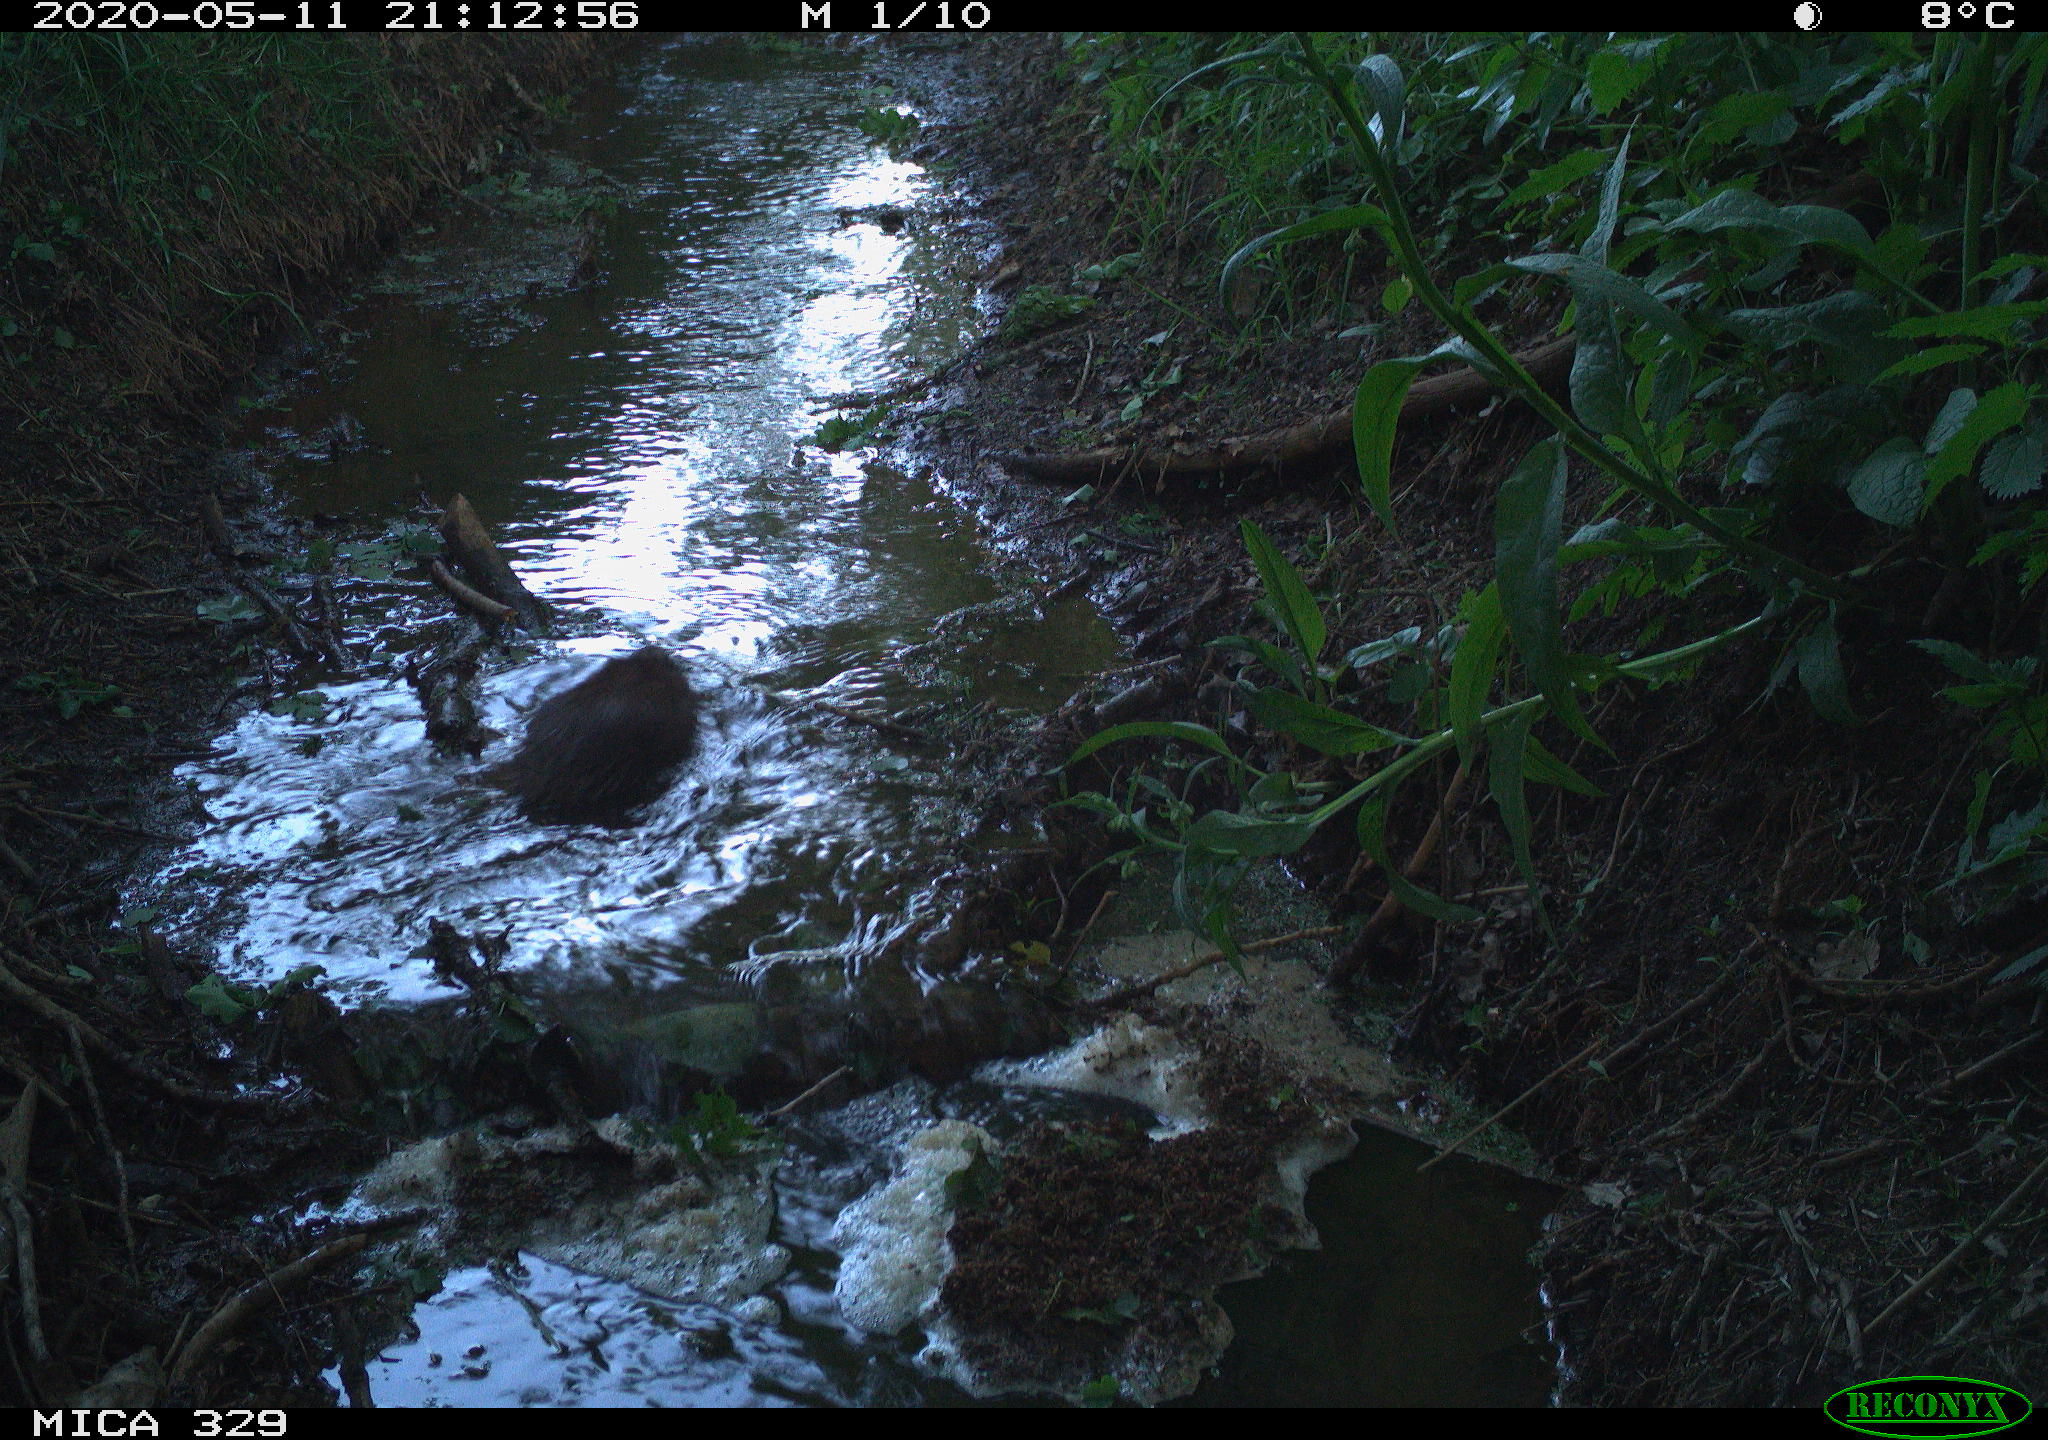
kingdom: Animalia
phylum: Chordata
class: Mammalia
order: Rodentia
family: Cricetidae
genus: Ondatra
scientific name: Ondatra zibethicus
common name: Muskrat
